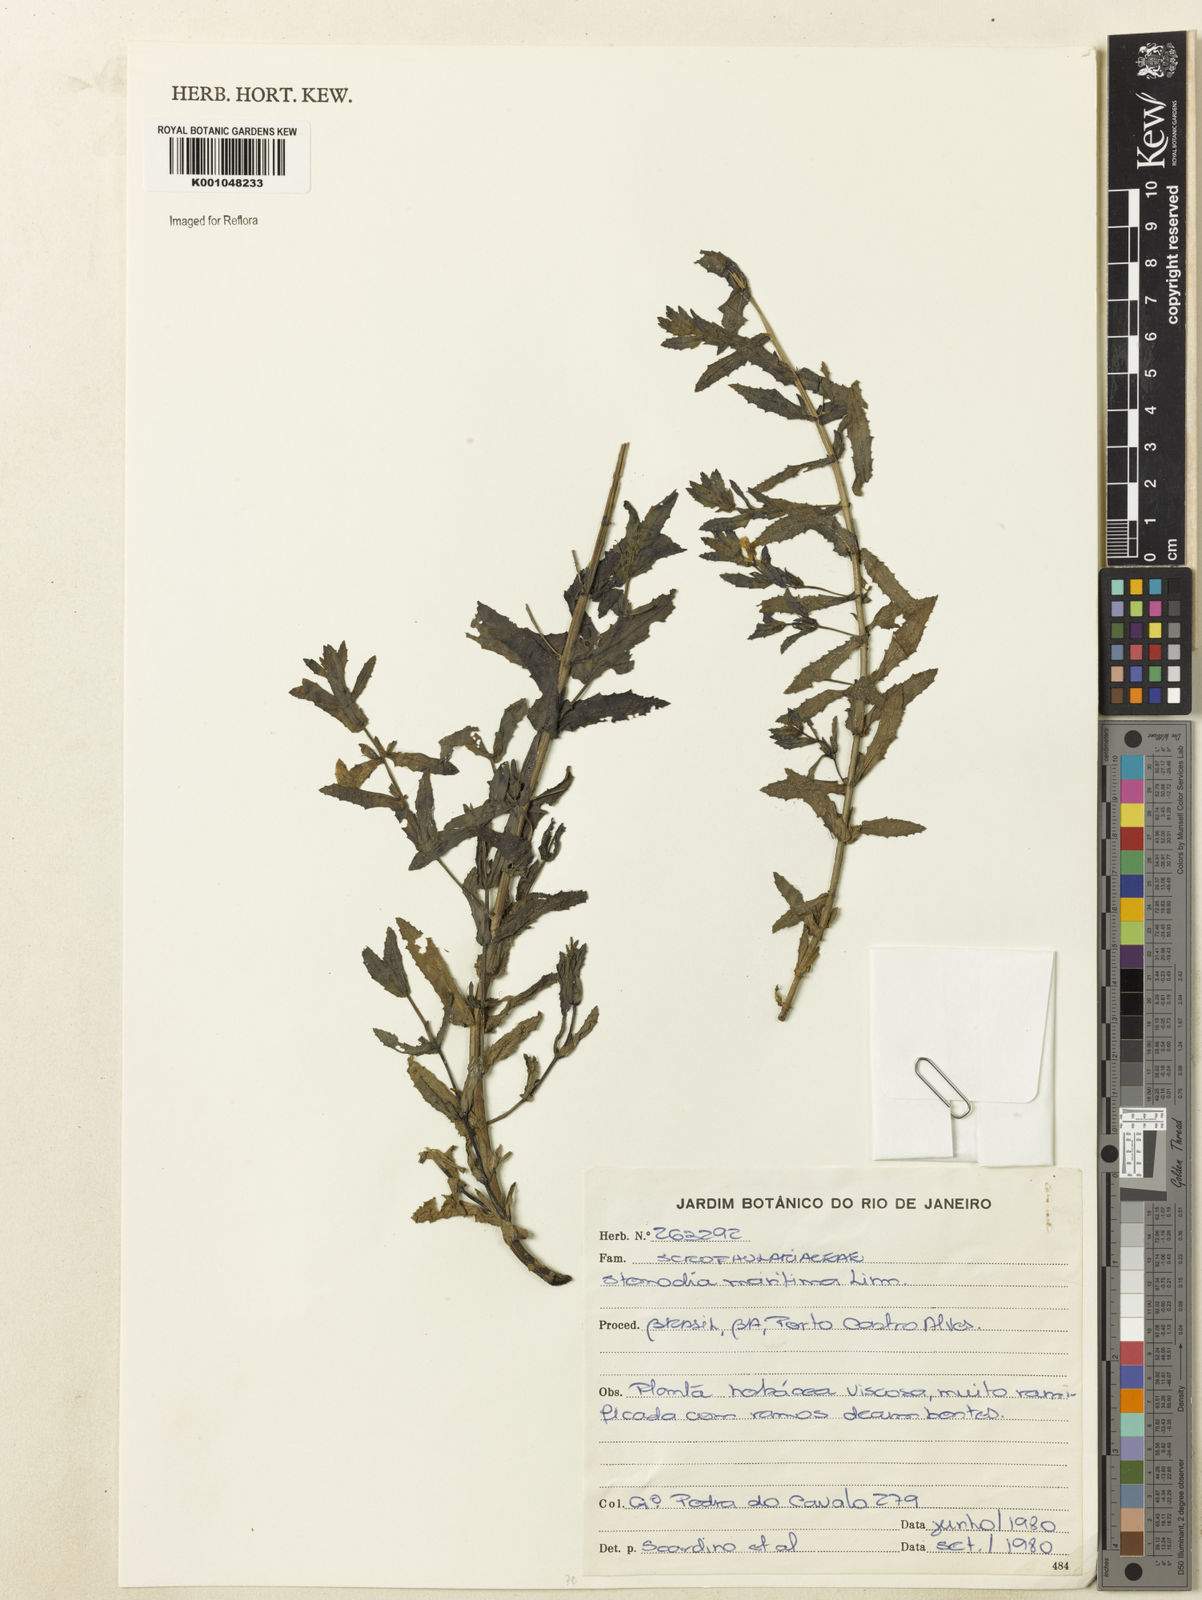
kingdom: Plantae
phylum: Tracheophyta
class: Magnoliopsida
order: Lamiales
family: Plantaginaceae
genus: Stemodia
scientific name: Stemodia maritima
